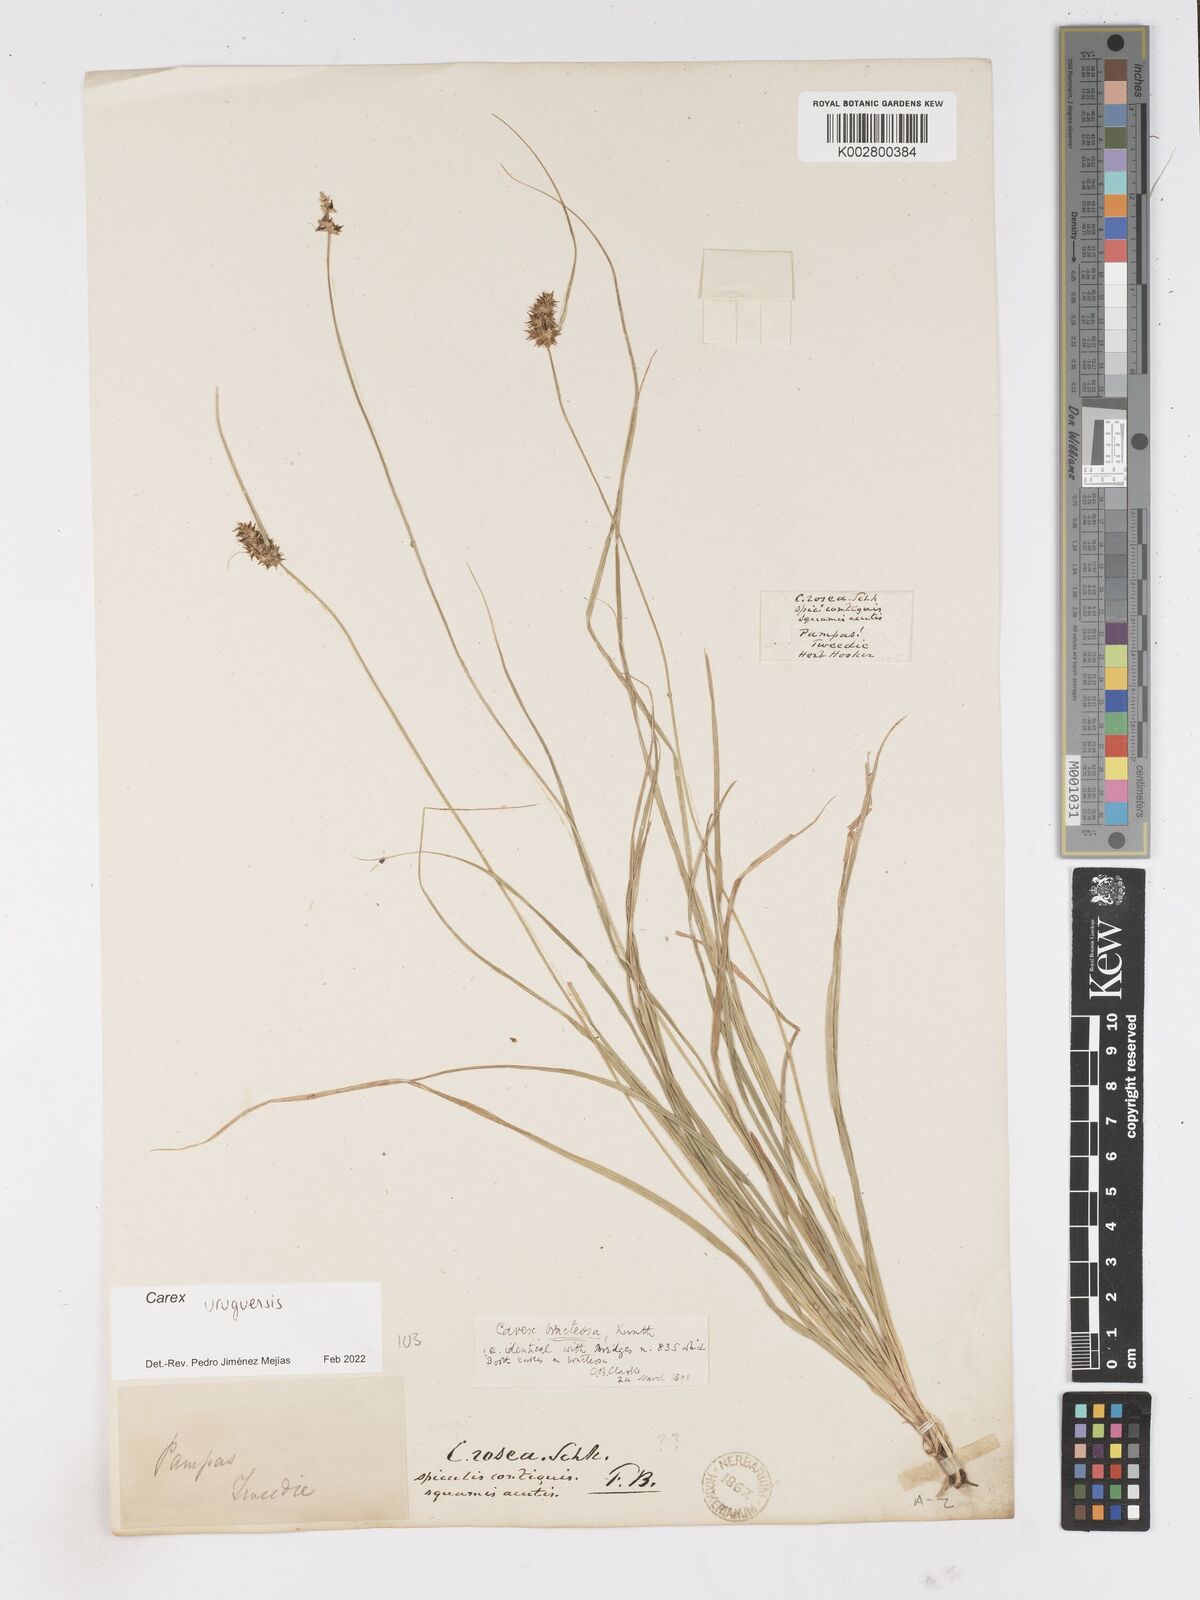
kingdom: Plantae
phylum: Tracheophyta
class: Liliopsida
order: Poales
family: Cyperaceae
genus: Carex
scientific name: Carex uruguensis
